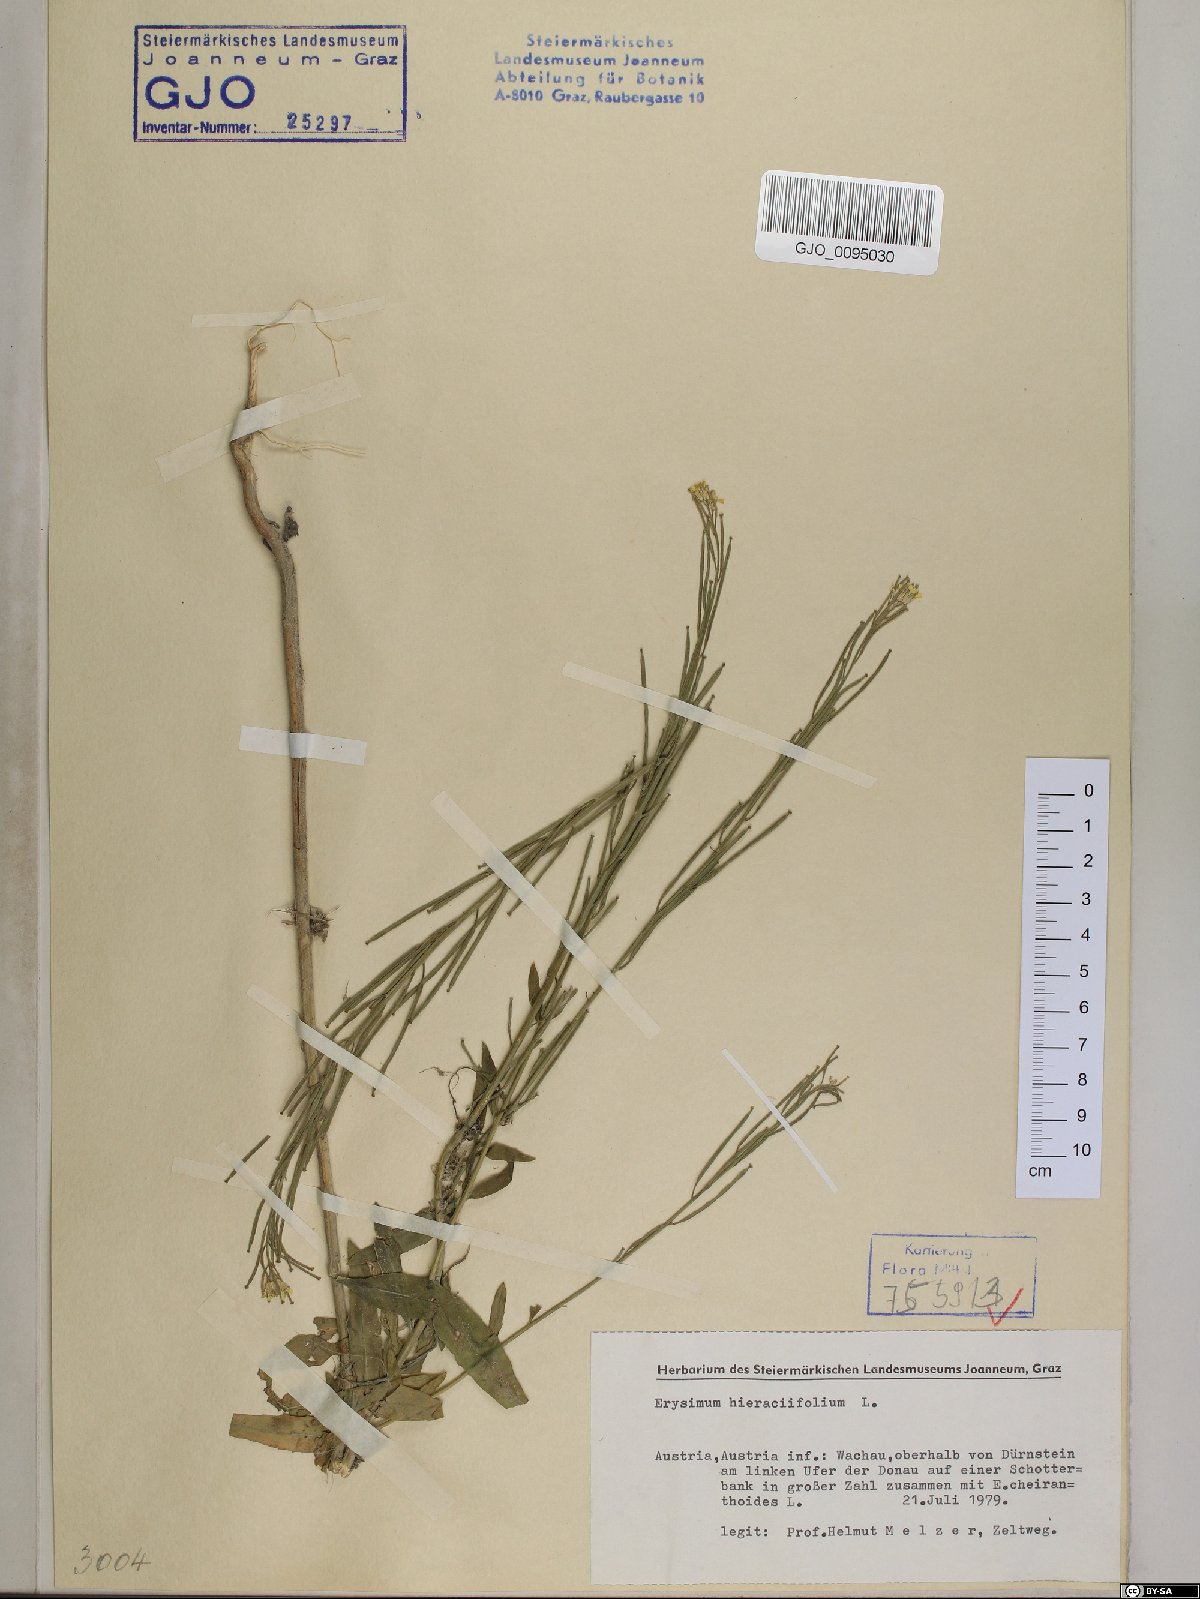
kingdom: Plantae
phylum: Tracheophyta
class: Magnoliopsida
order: Brassicales
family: Brassicaceae
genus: Erysimum
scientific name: Erysimum hieraciifolium
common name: European wallflower
